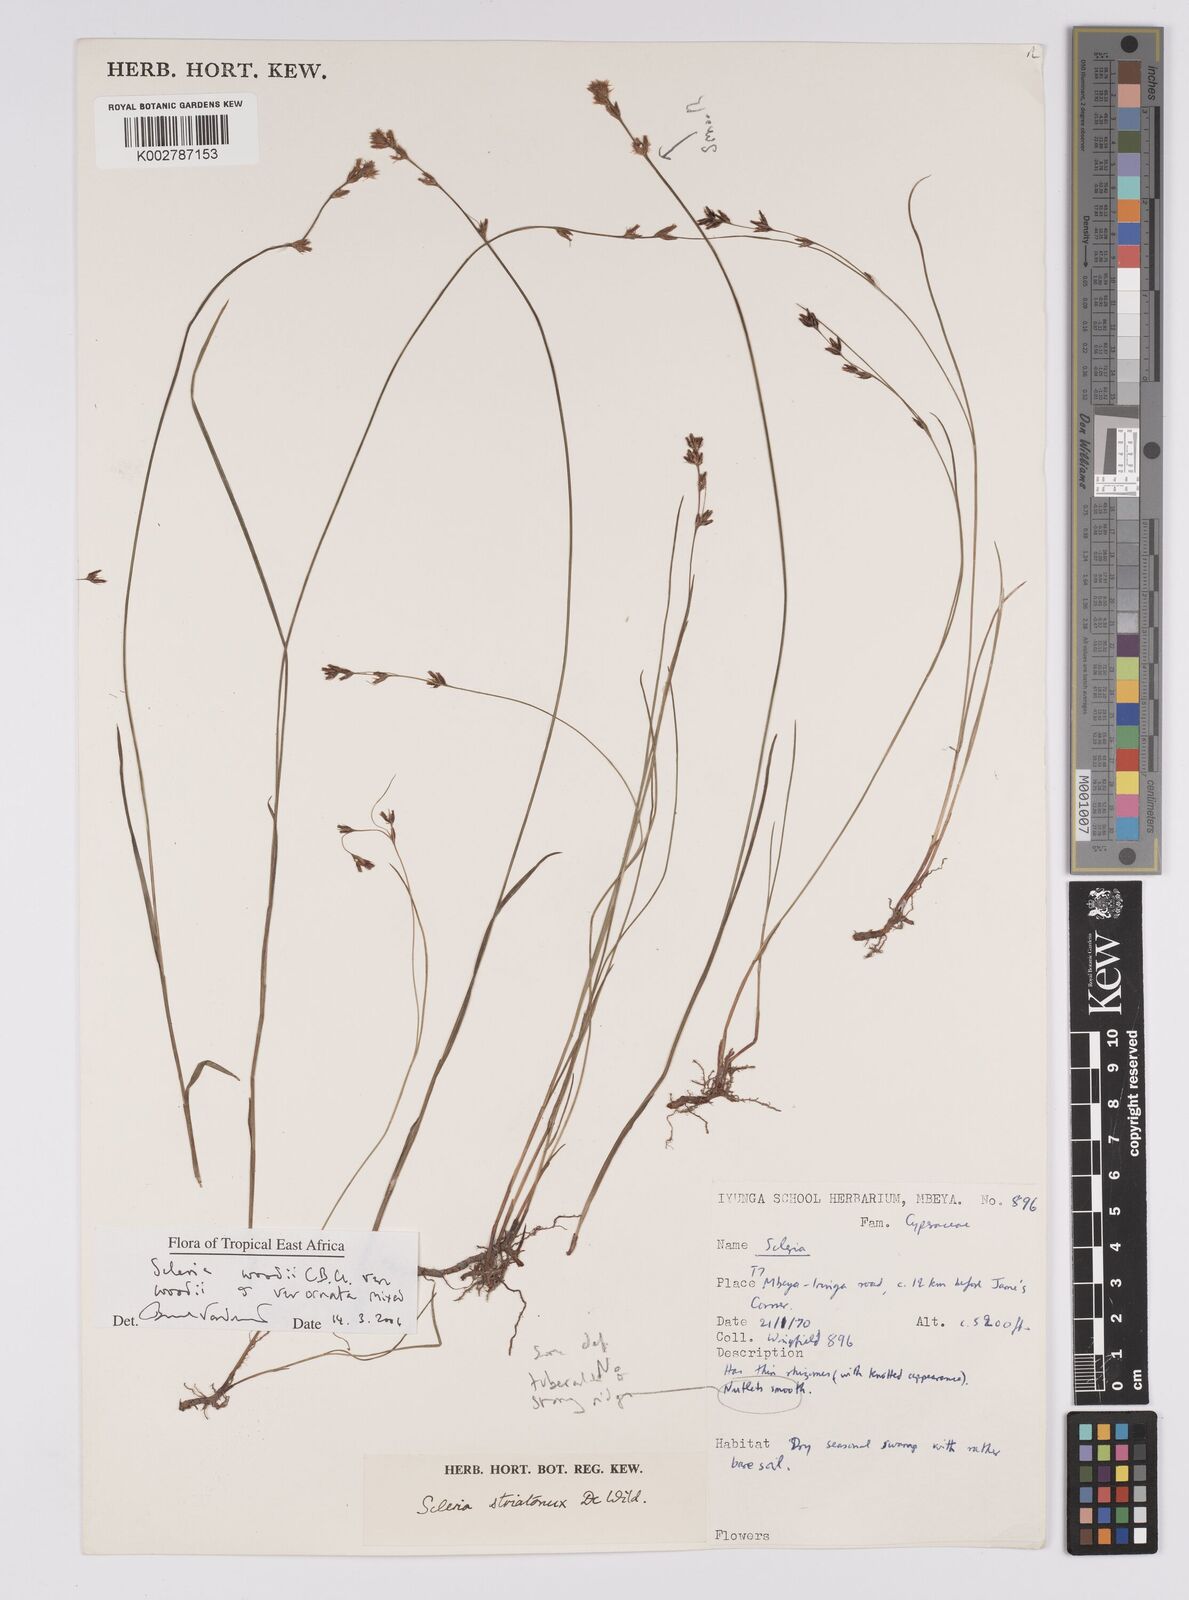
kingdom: Plantae
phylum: Tracheophyta
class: Liliopsida
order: Poales
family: Cyperaceae
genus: Scleria
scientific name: Scleria woodii
